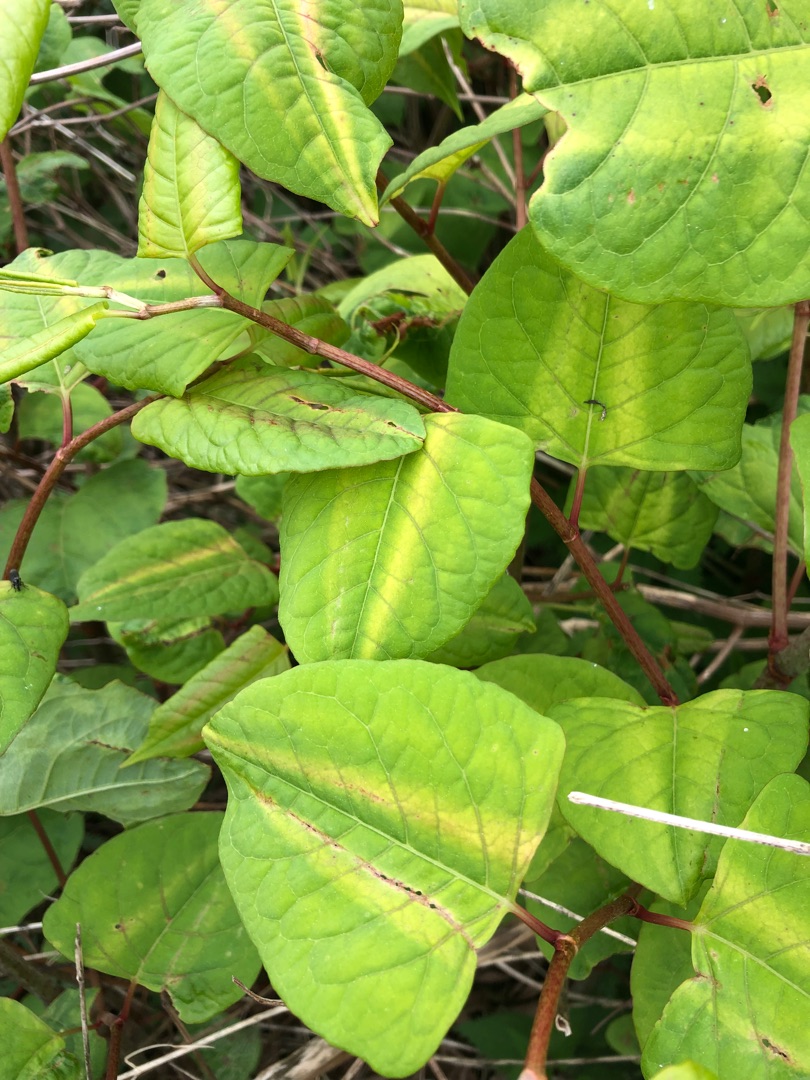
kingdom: Plantae
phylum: Tracheophyta
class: Magnoliopsida
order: Caryophyllales
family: Polygonaceae
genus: Reynoutria
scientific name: Reynoutria japonica
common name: Japan-pileurt
